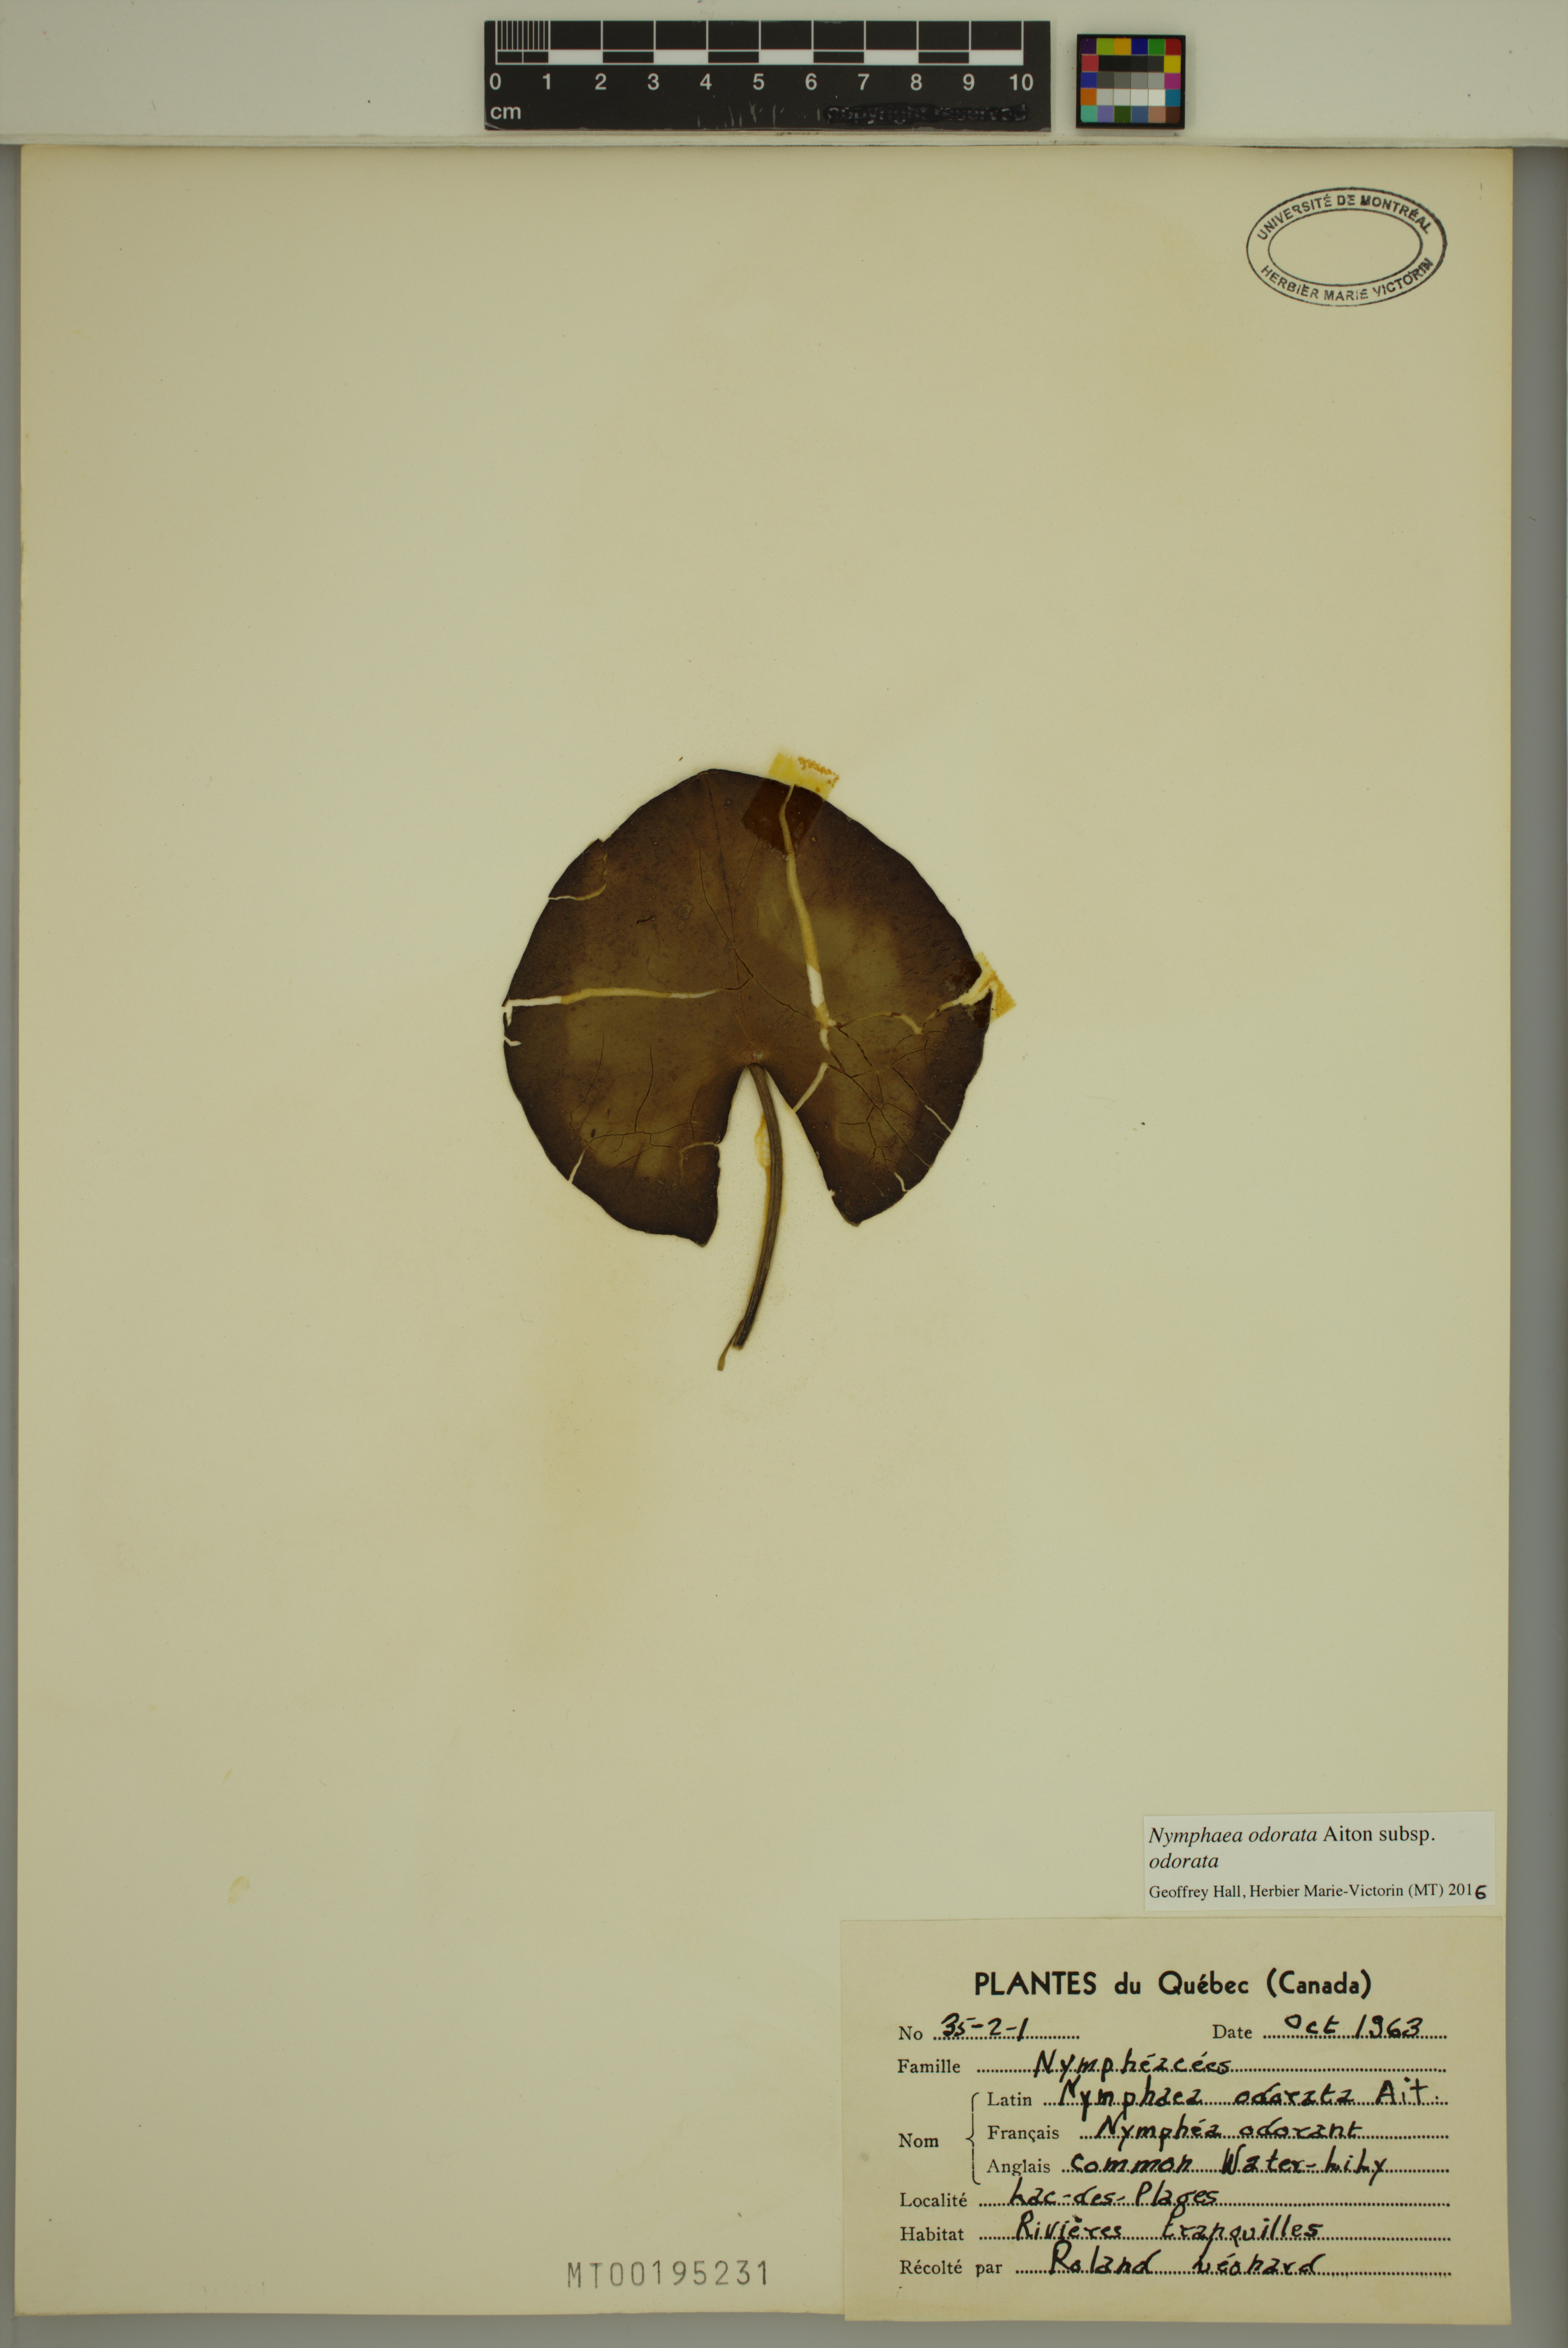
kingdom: Plantae
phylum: Tracheophyta
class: Magnoliopsida
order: Nymphaeales
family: Nymphaeaceae
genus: Nymphaea
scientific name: Nymphaea odorata
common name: Fragrant water-lily
